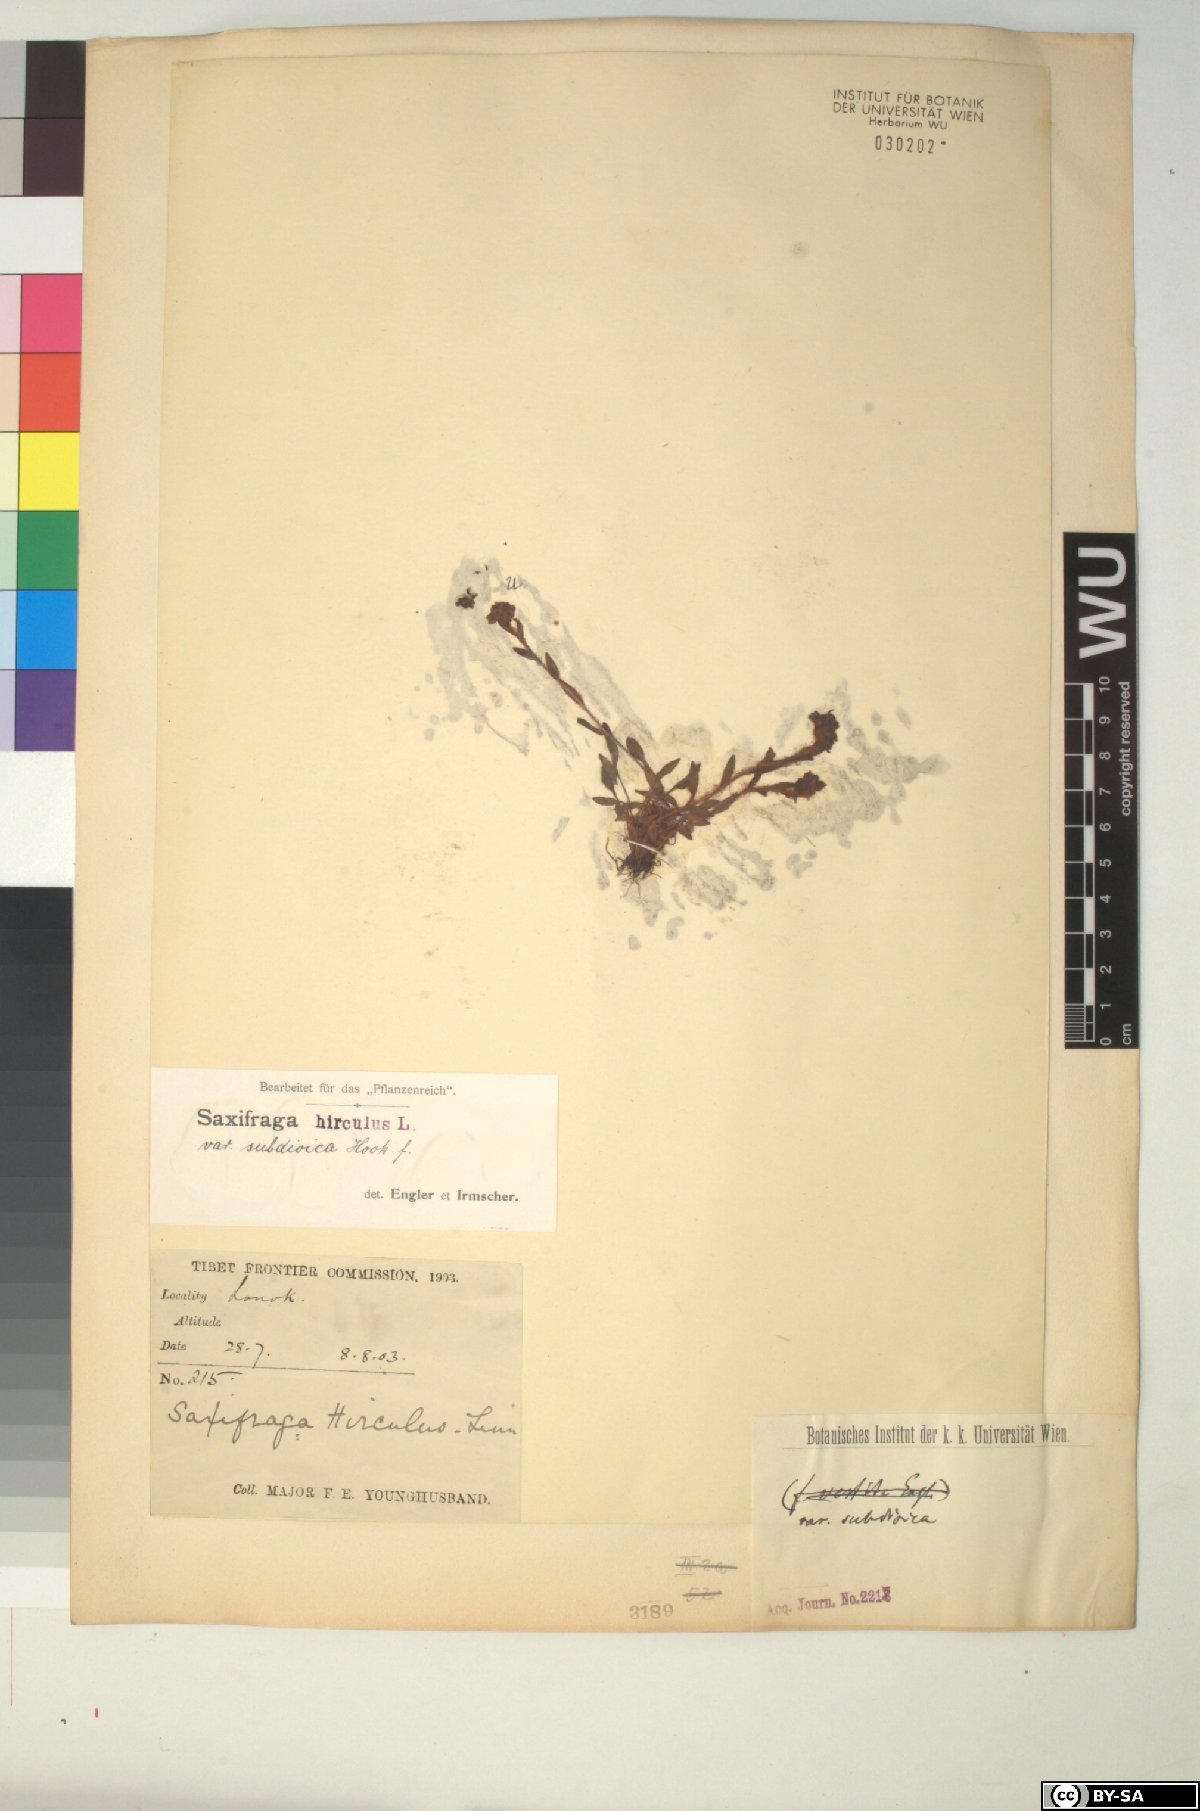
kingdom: Plantae
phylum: Tracheophyta
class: Magnoliopsida
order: Saxifragales
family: Saxifragaceae
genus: Saxifraga
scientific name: Saxifraga tangutica
